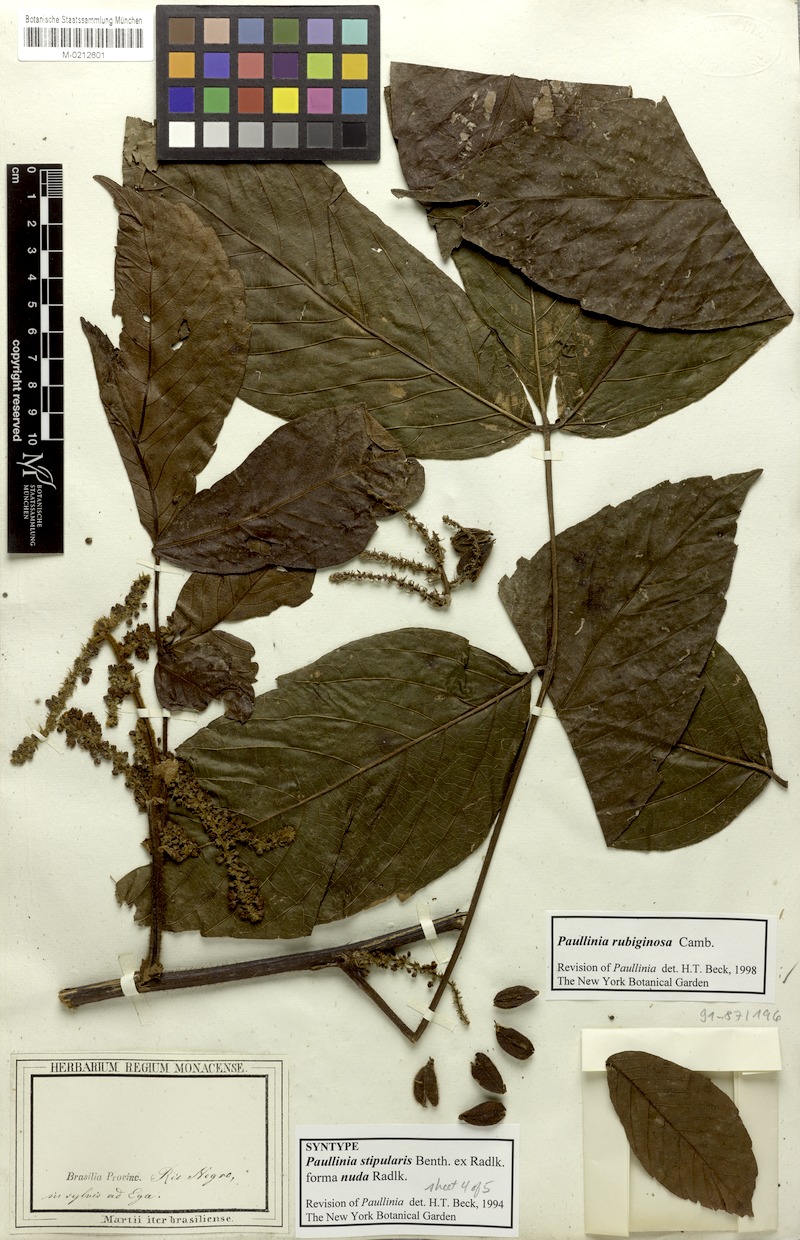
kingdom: Plantae
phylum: Tracheophyta
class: Magnoliopsida
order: Sapindales
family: Sapindaceae
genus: Paullinia
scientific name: Paullinia rubiginosa
